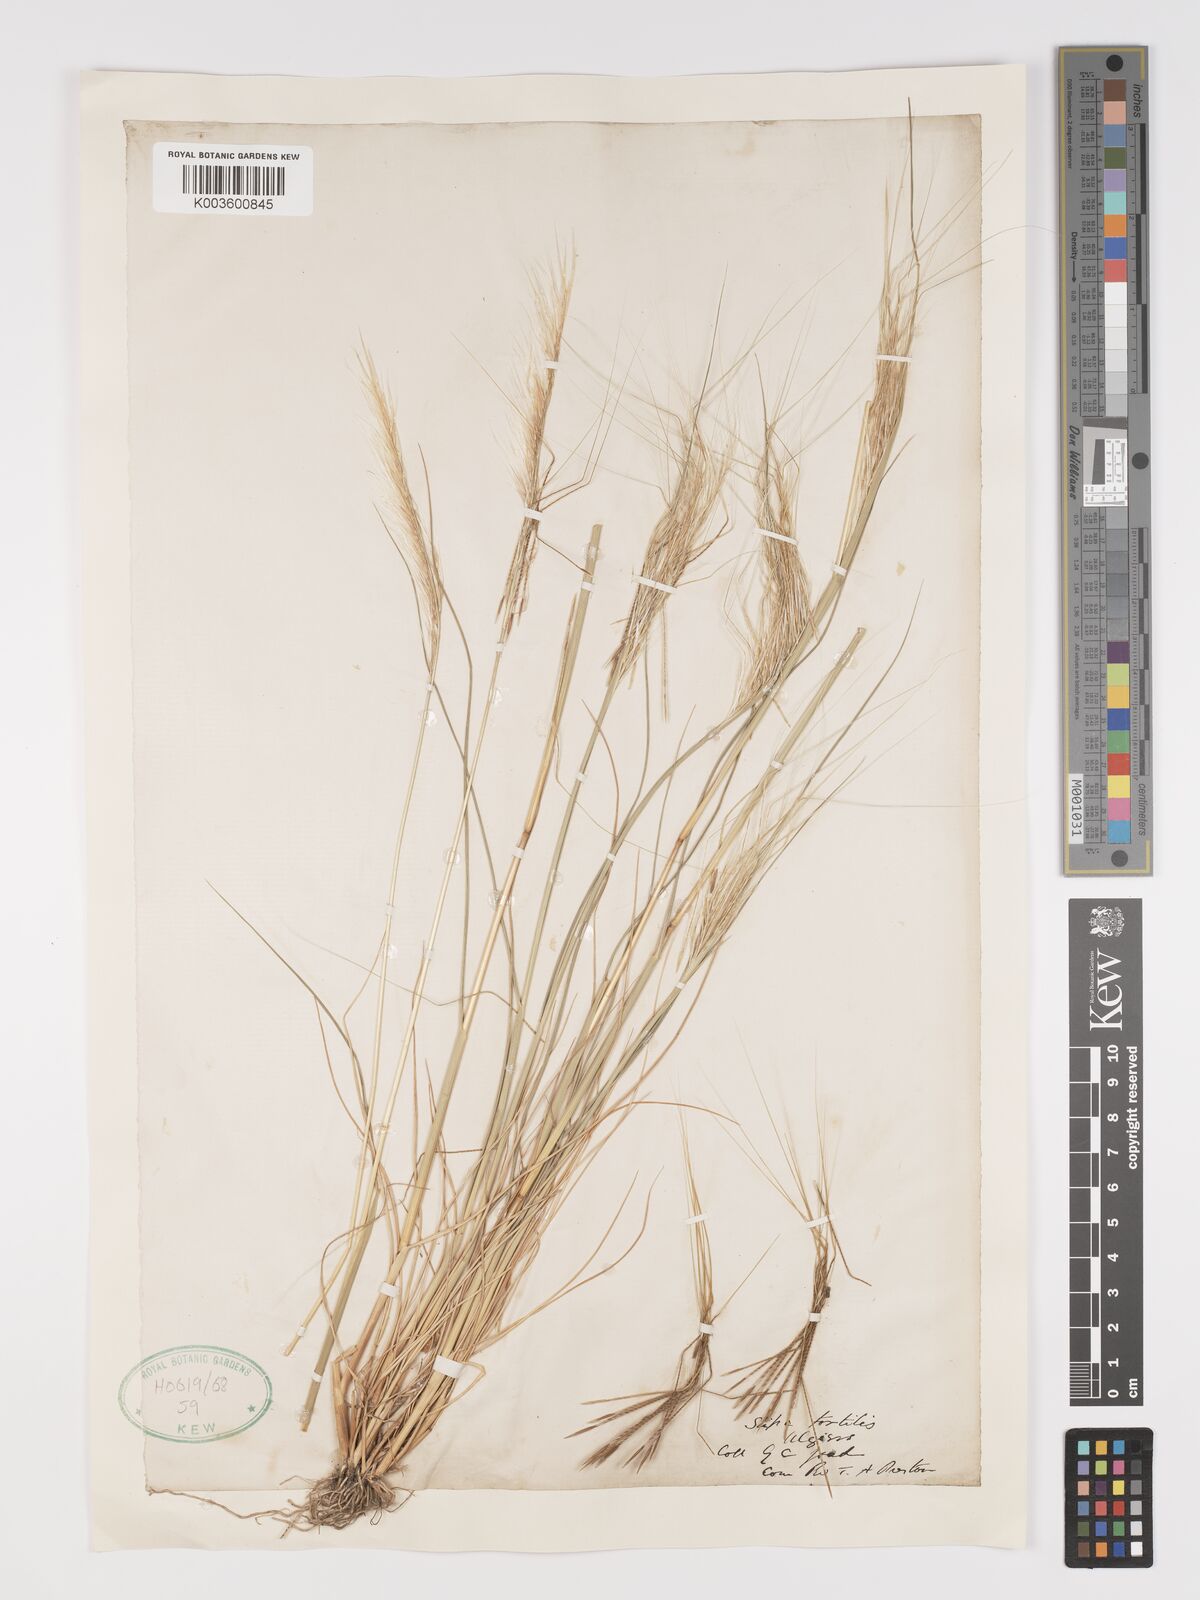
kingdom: Plantae
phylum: Tracheophyta
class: Liliopsida
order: Poales
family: Poaceae
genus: Stipellula
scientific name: Stipellula capensis
